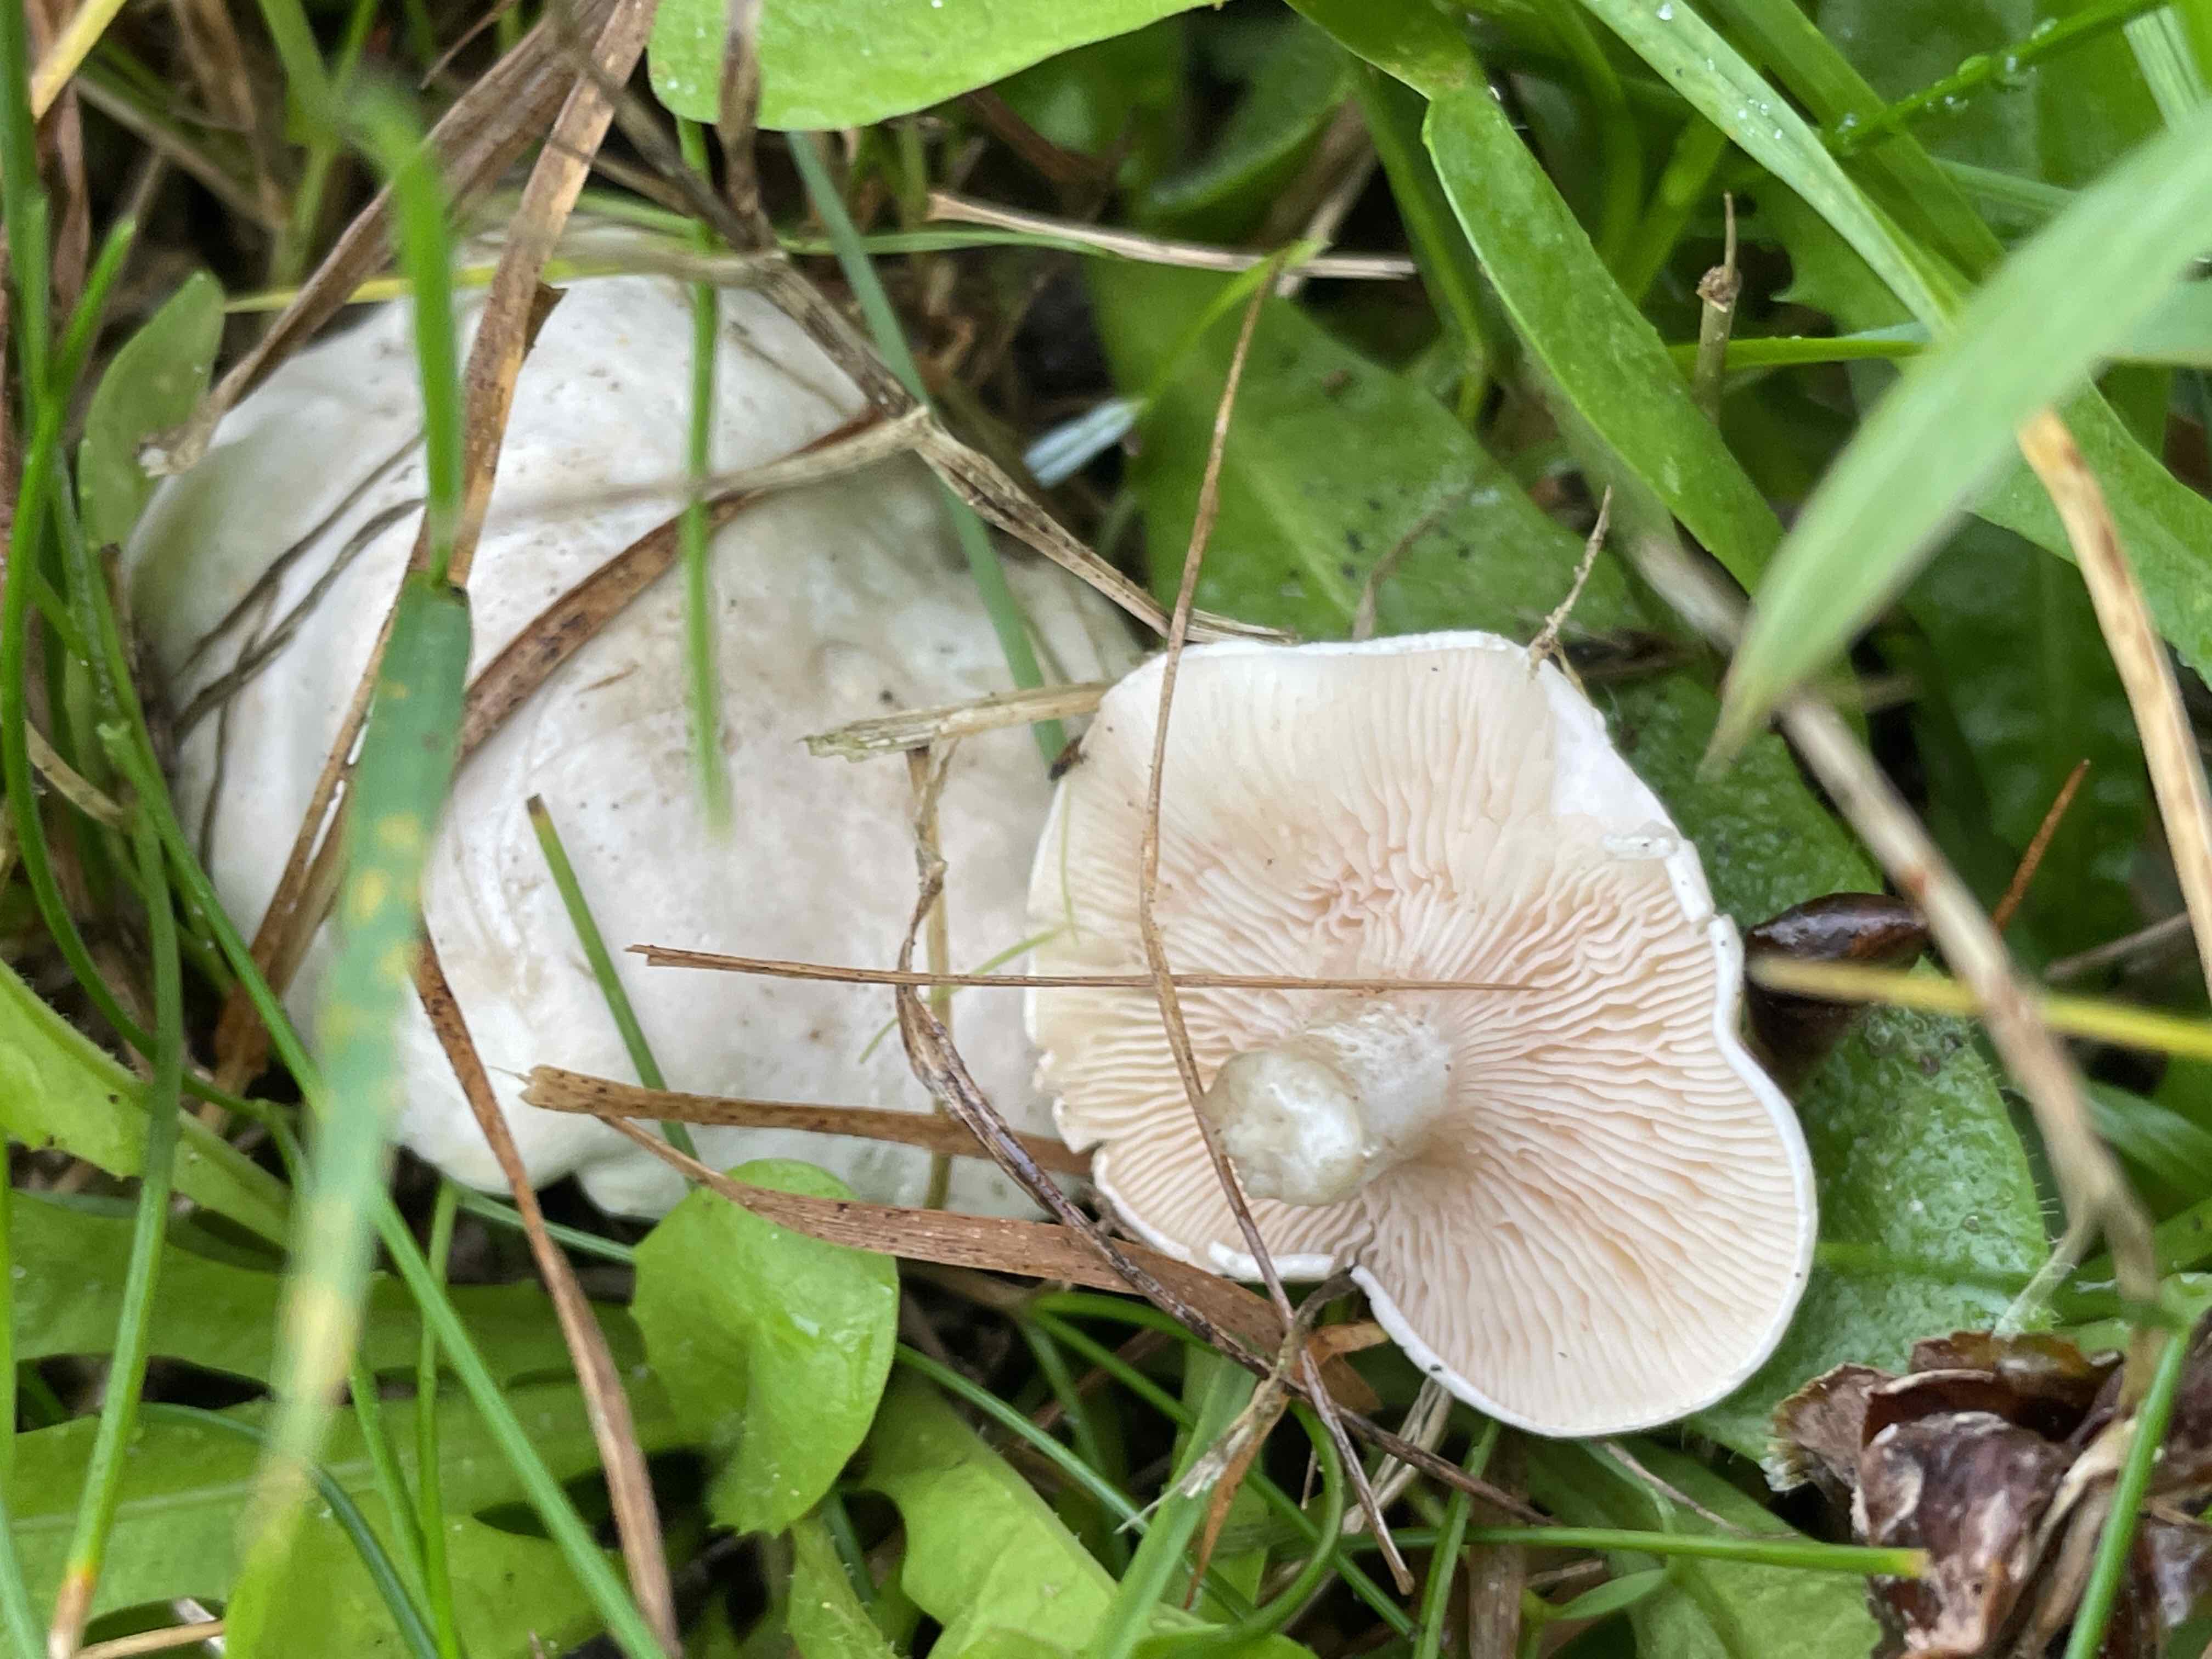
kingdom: Fungi
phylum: Basidiomycota
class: Agaricomycetes
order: Agaricales
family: Entolomataceae
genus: Clitopilus
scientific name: Clitopilus prunulus
